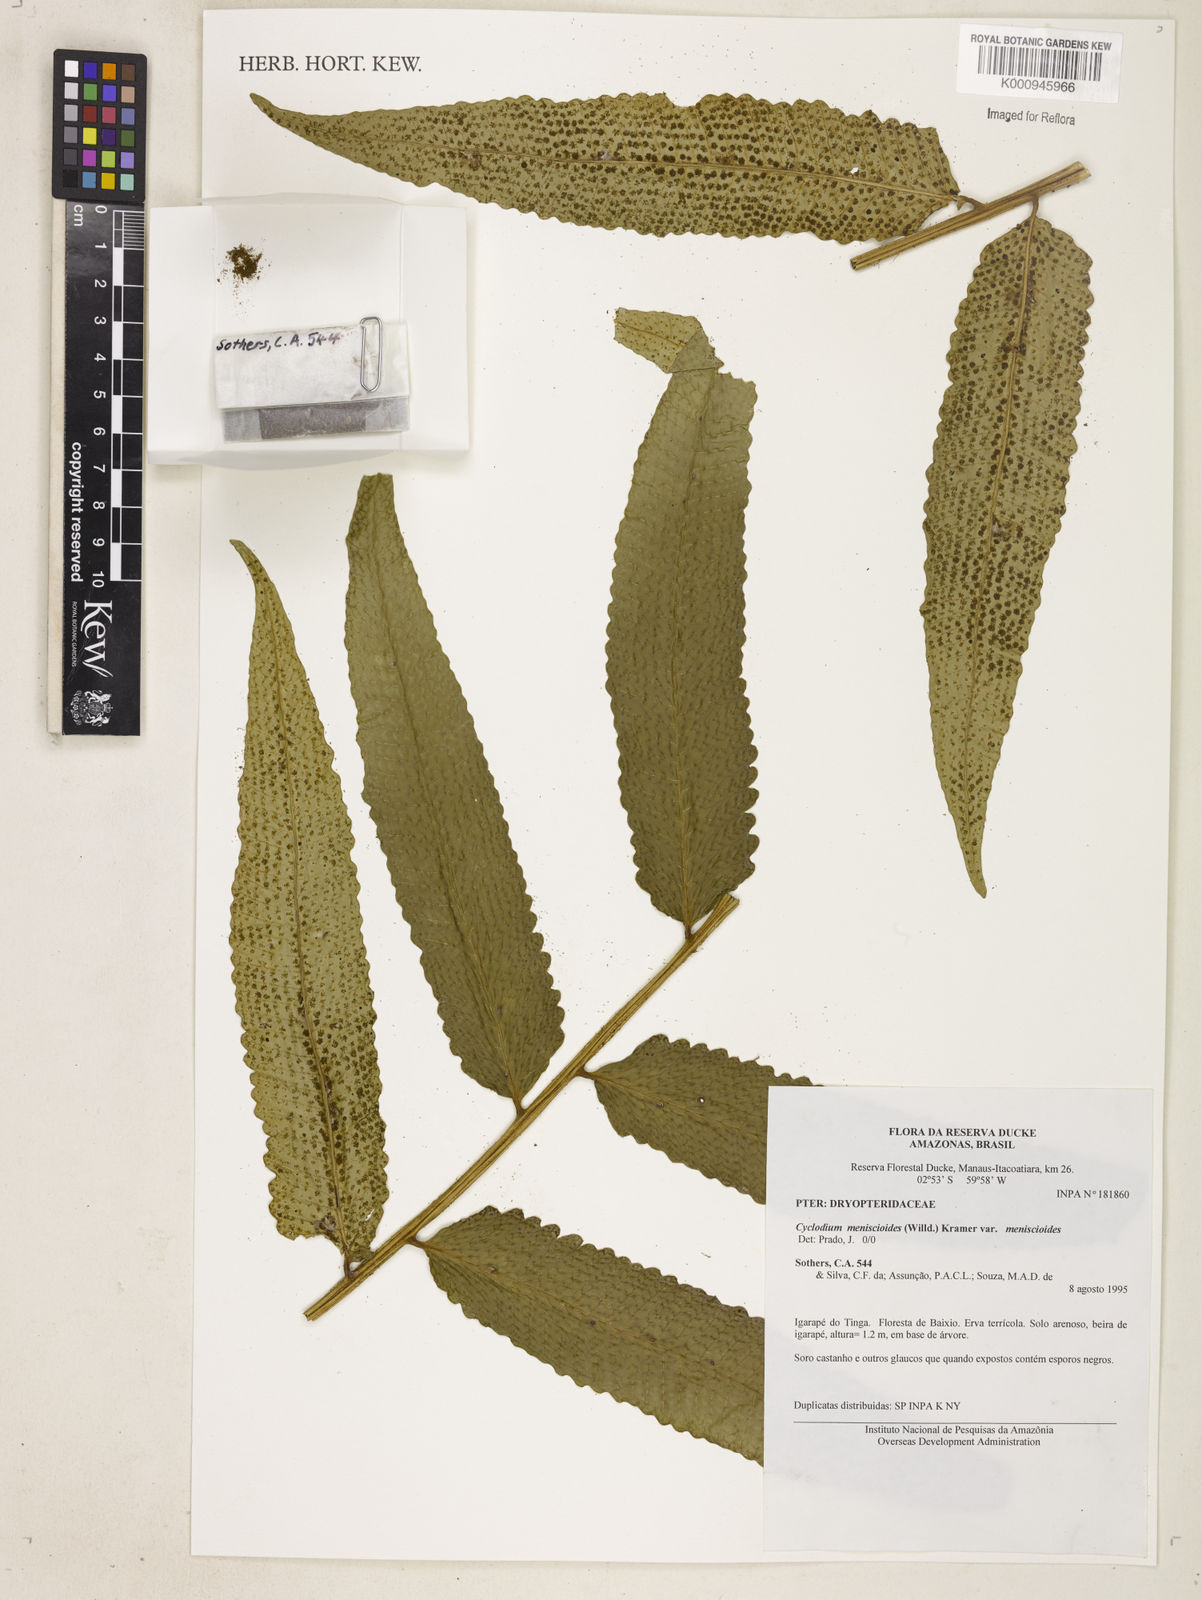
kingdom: Plantae
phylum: Tracheophyta
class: Polypodiopsida
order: Polypodiales
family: Dryopteridaceae
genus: Cyclodium
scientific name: Cyclodium meniscioides
